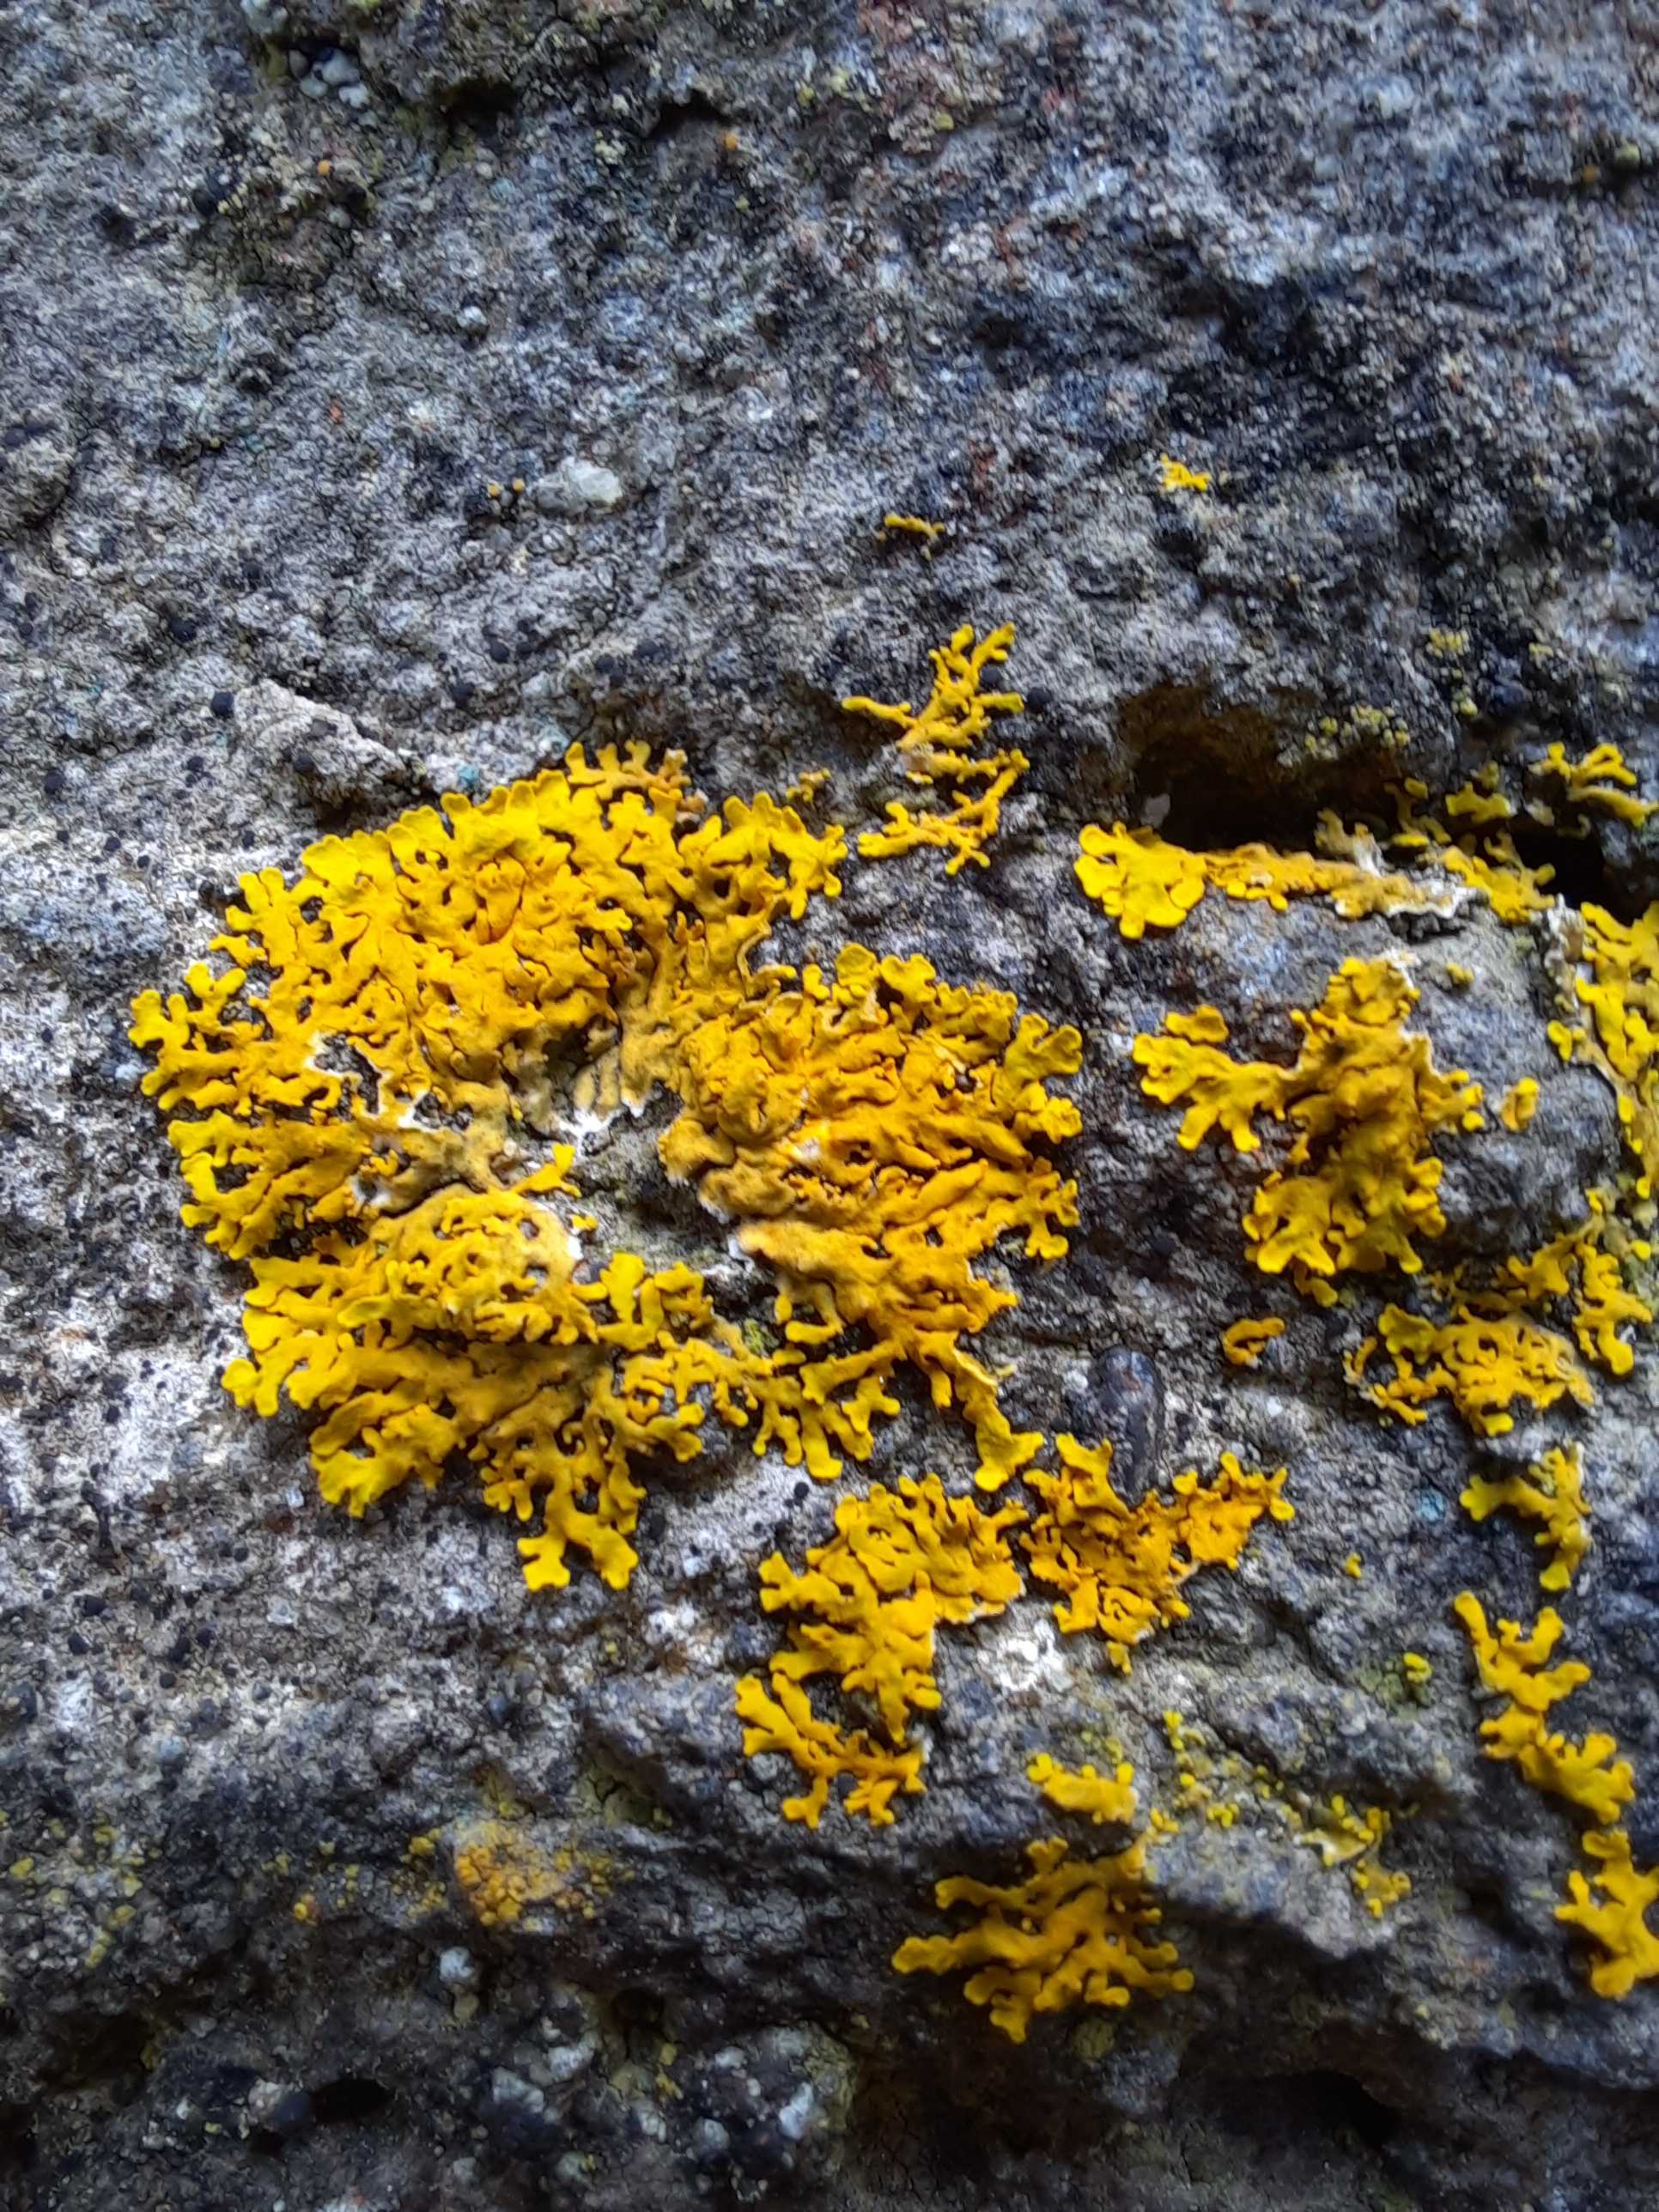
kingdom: Fungi
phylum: Ascomycota
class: Lecanoromycetes
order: Teloschistales
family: Teloschistaceae
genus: Xanthoria
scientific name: Xanthoria aureola
